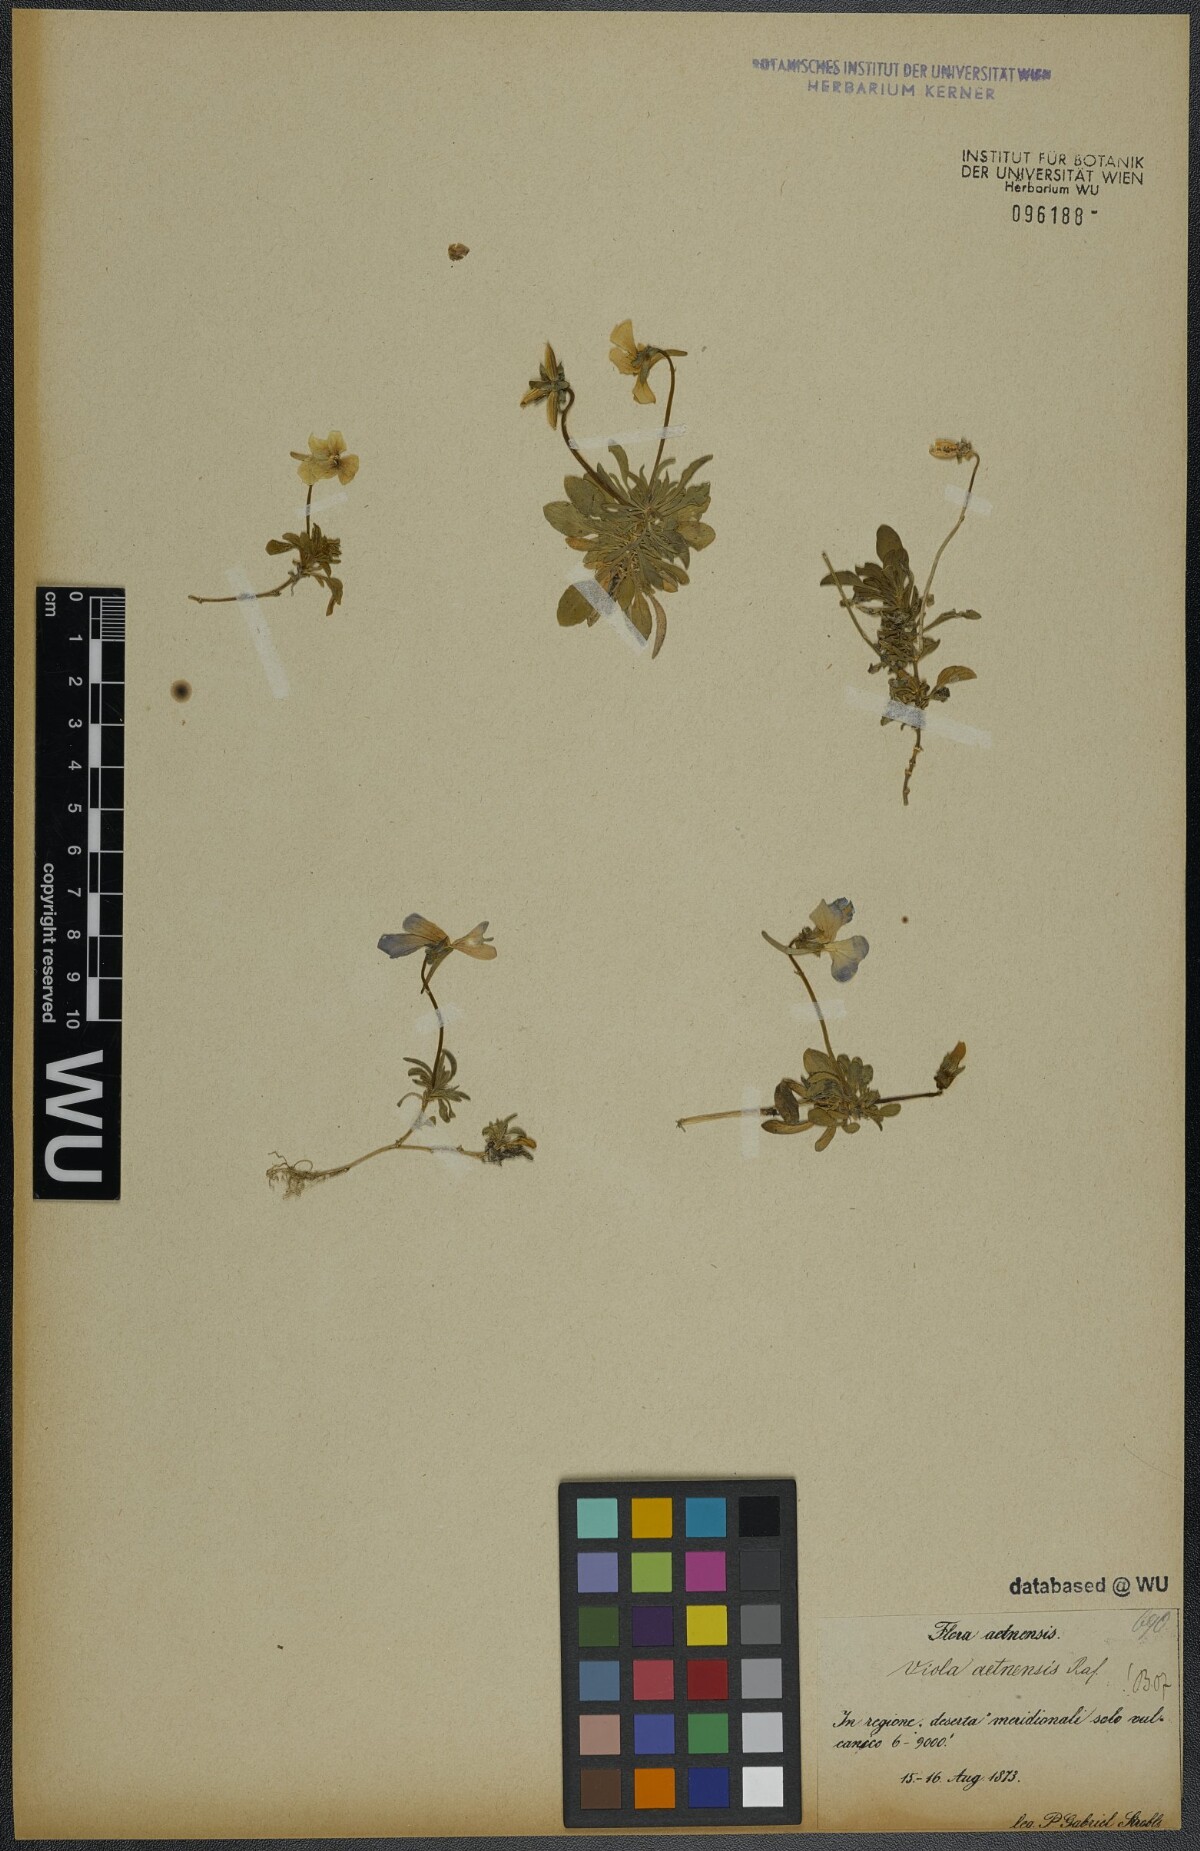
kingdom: Plantae
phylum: Tracheophyta
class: Magnoliopsida
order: Malpighiales
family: Violaceae
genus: Viola
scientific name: Viola aethnensis
